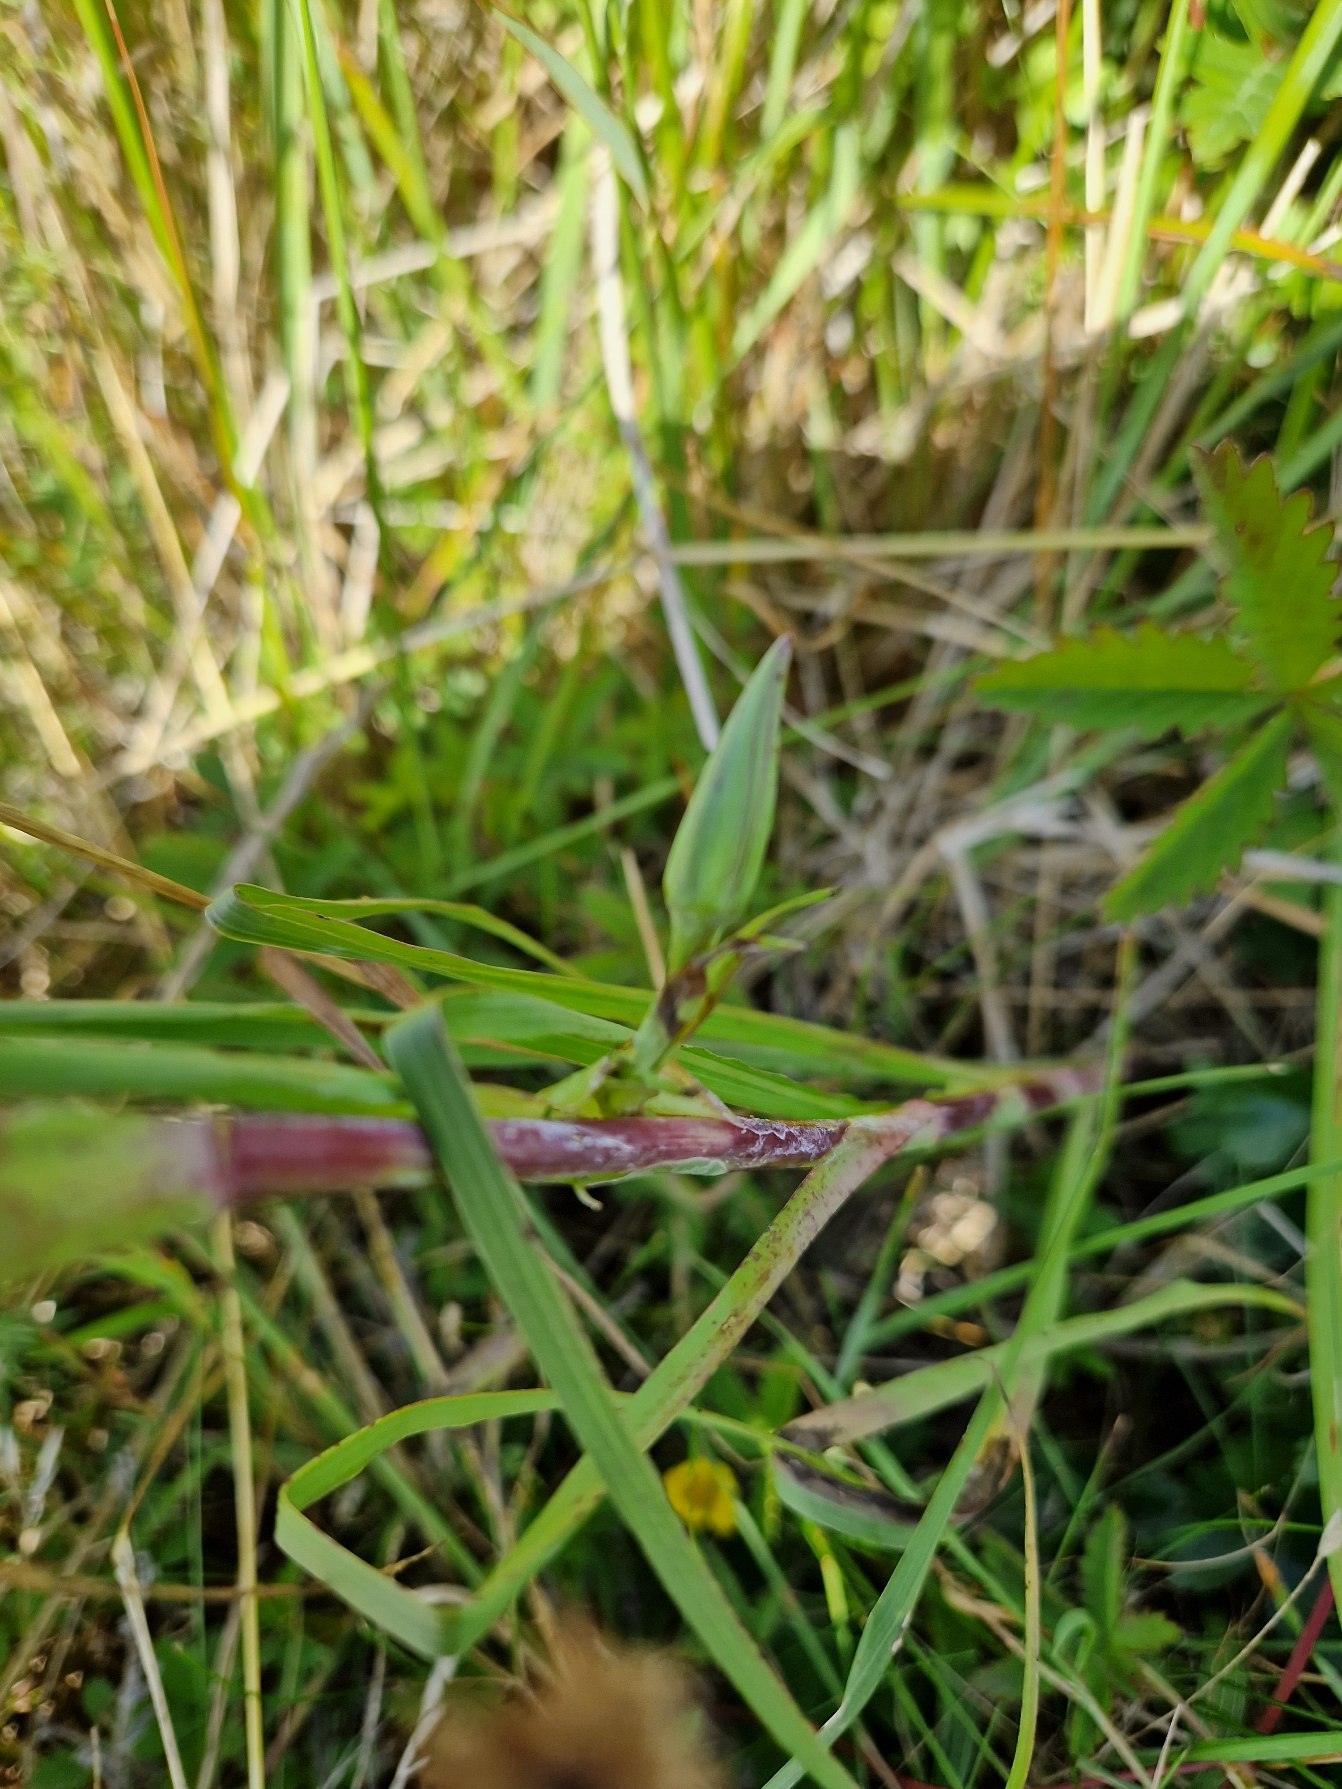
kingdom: Plantae
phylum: Tracheophyta
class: Magnoliopsida
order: Asterales
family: Asteraceae
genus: Tragopogon
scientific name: Tragopogon minor
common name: Småkronet gedeskæg
